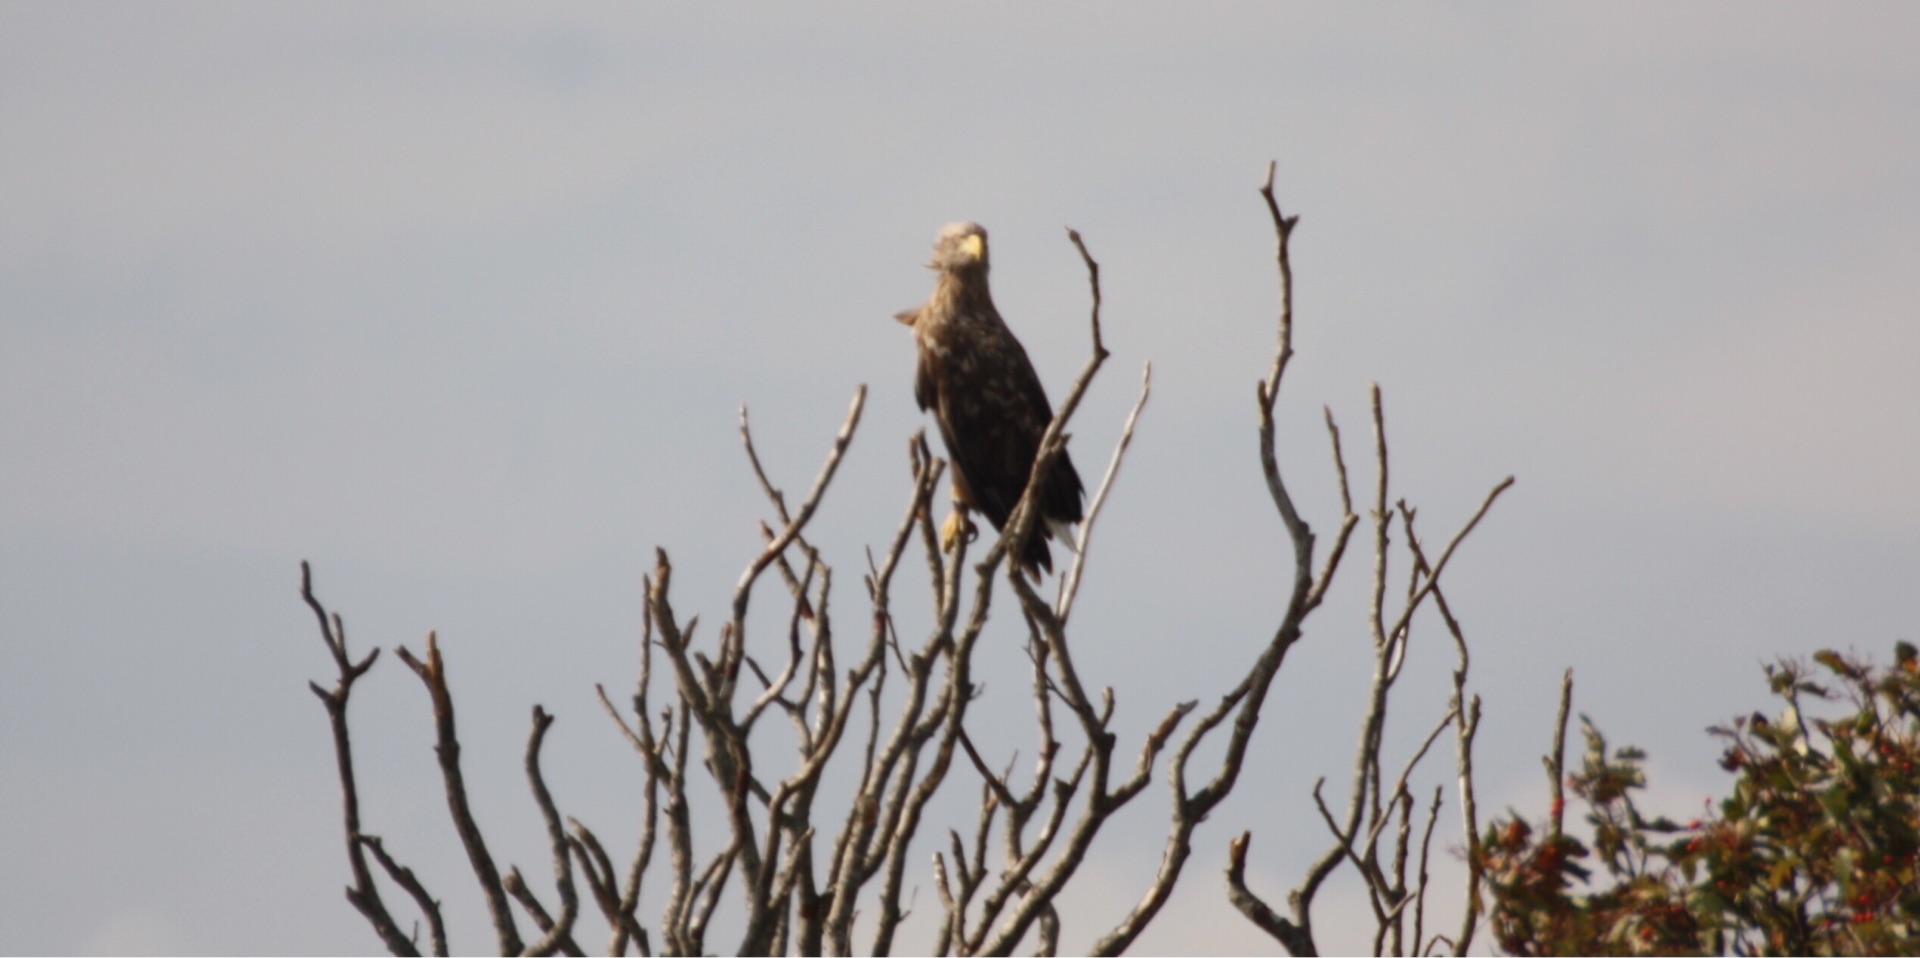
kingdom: Animalia
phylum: Chordata
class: Aves
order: Accipitriformes
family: Accipitridae
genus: Haliaeetus
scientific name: Haliaeetus albicilla
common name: Havørn
